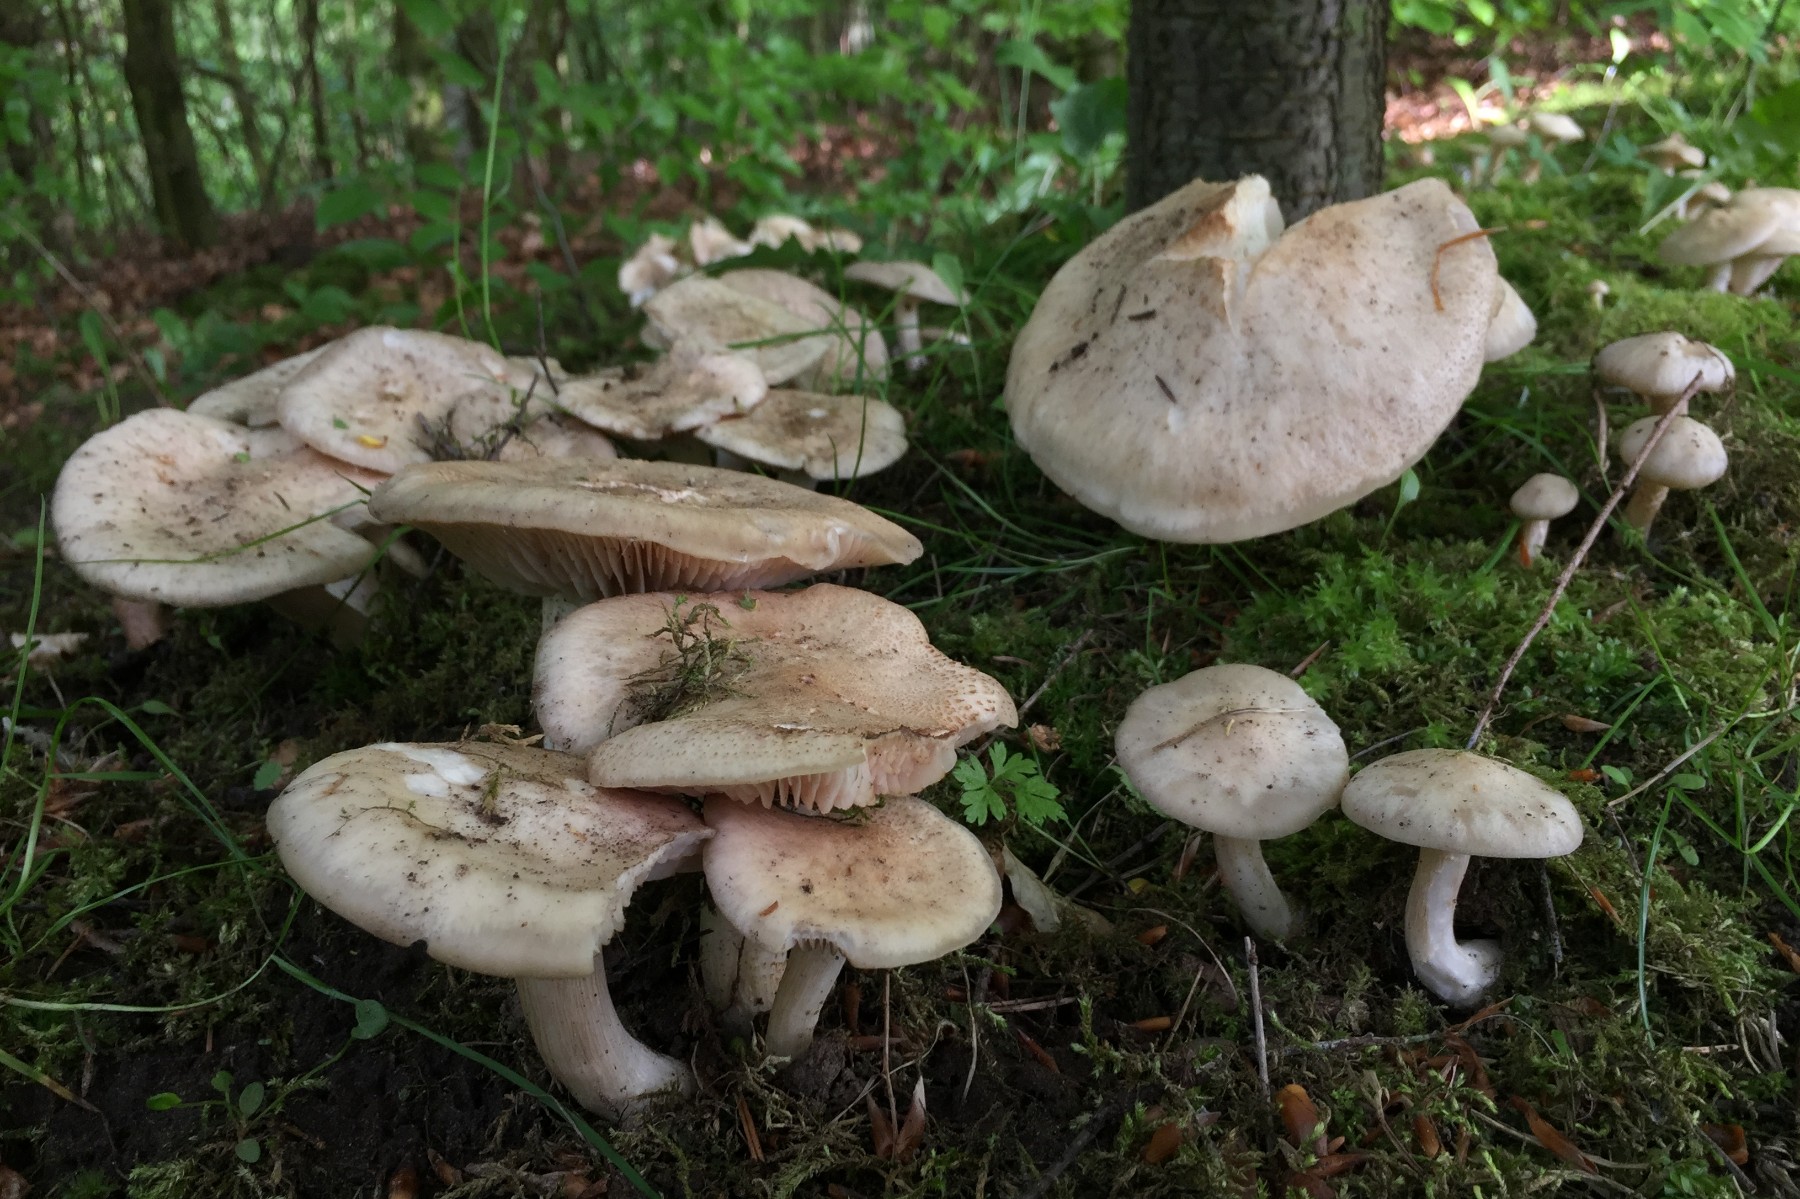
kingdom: Fungi
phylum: Basidiomycota
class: Agaricomycetes
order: Agaricales
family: Entolomataceae
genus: Entoloma
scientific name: Entoloma clypeatum
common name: flammet rødblad
